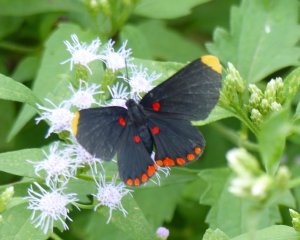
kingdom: Animalia
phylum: Arthropoda
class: Insecta
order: Lepidoptera
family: Lycaenidae
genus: Melanis
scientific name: Melanis pixe
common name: Red-bordered Pixie
